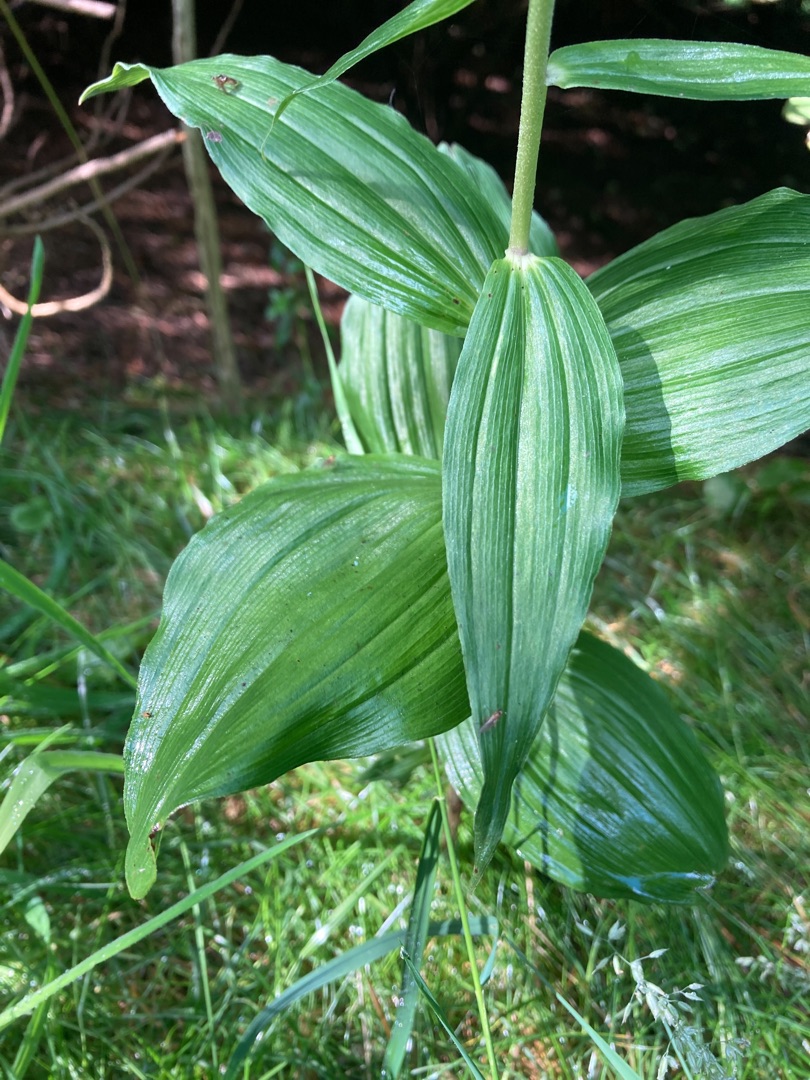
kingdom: Plantae
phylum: Tracheophyta
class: Liliopsida
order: Asparagales
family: Orchidaceae
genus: Epipactis
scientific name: Epipactis helleborine
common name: Skov-hullæbe
